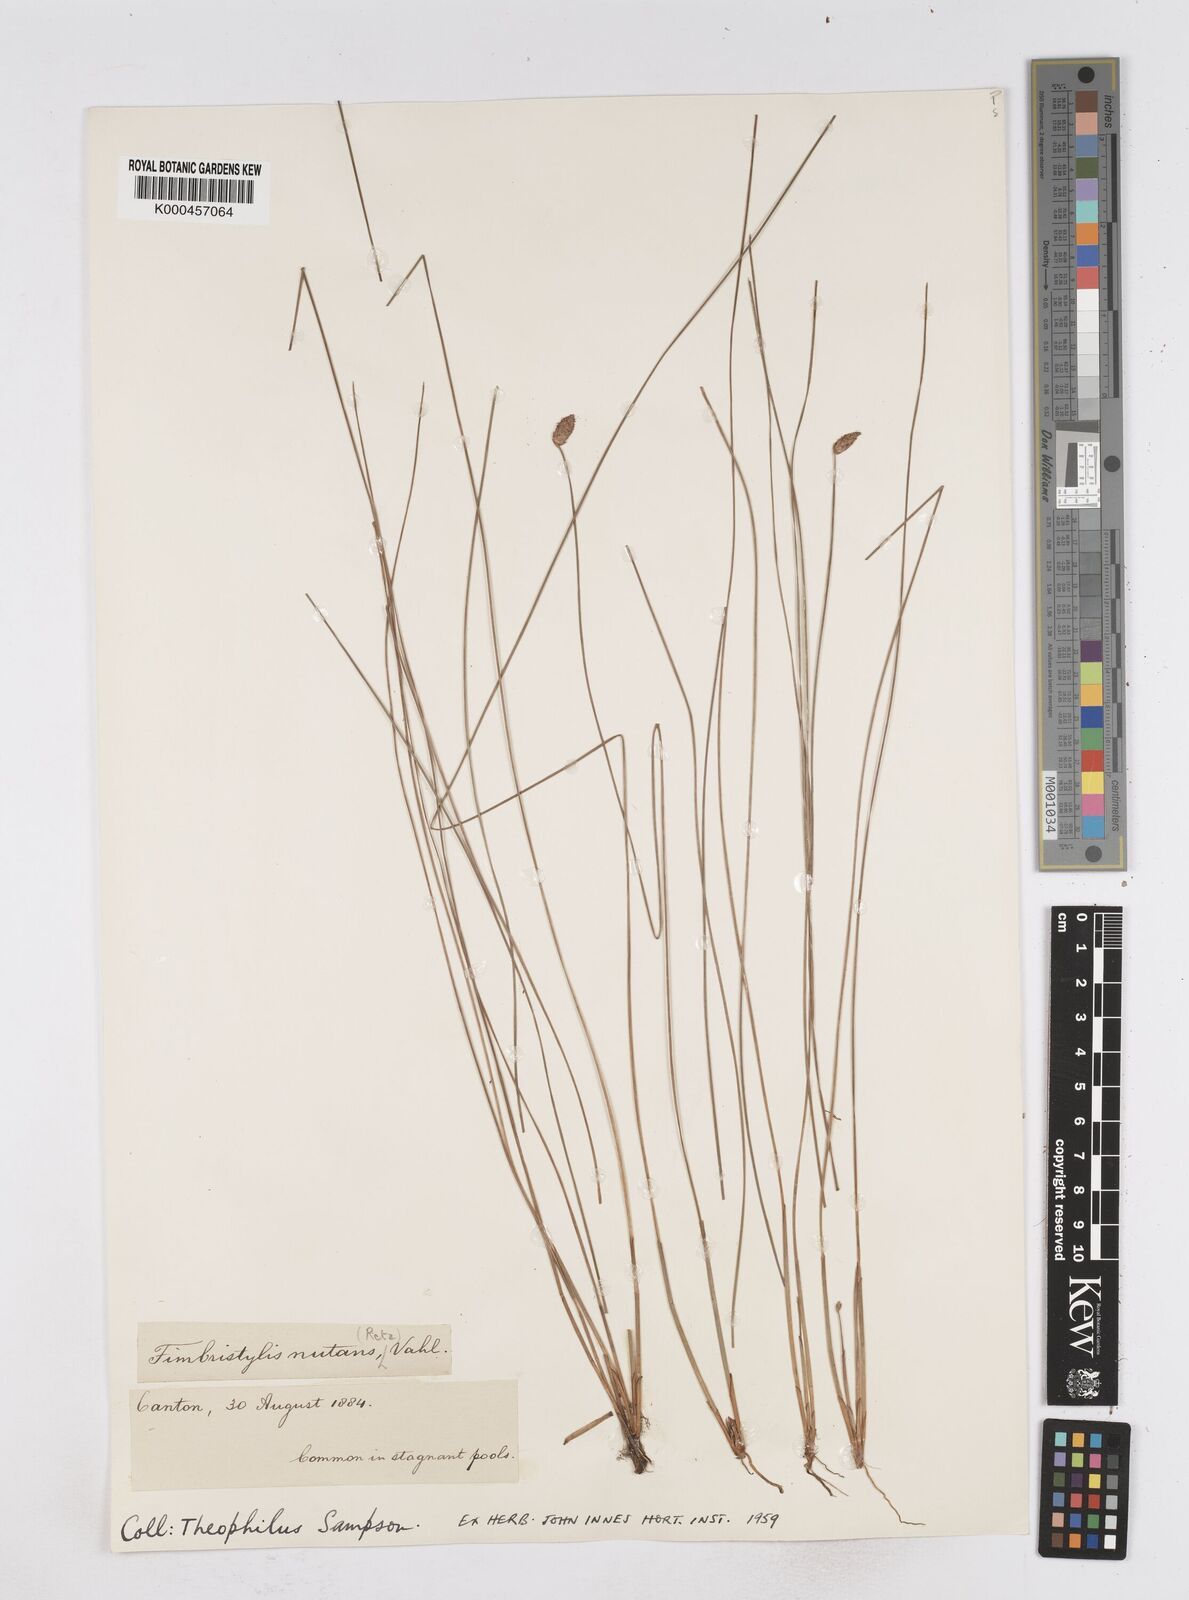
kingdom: Plantae
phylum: Tracheophyta
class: Liliopsida
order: Poales
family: Cyperaceae
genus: Fimbristylis
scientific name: Fimbristylis nutans
